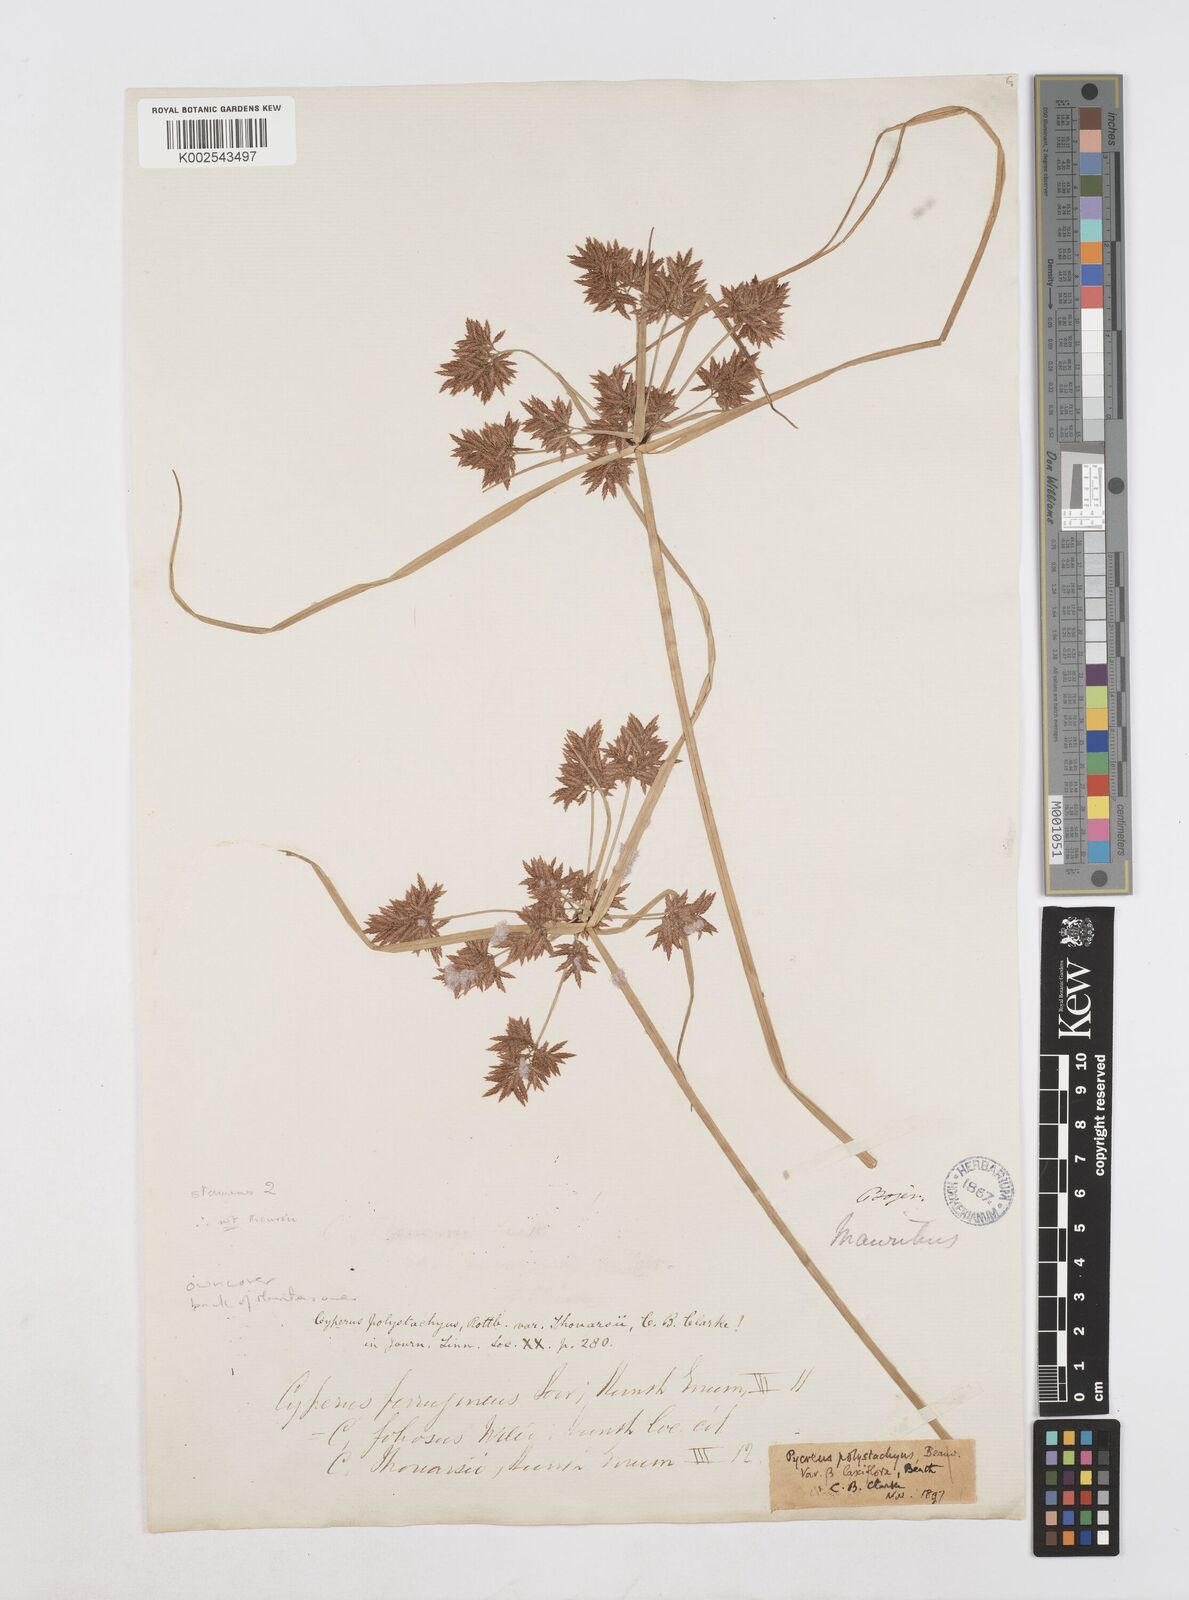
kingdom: Plantae
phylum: Tracheophyta
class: Liliopsida
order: Poales
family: Cyperaceae
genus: Cyperus
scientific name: Cyperus polystachyos
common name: Bunchy flat sedge
